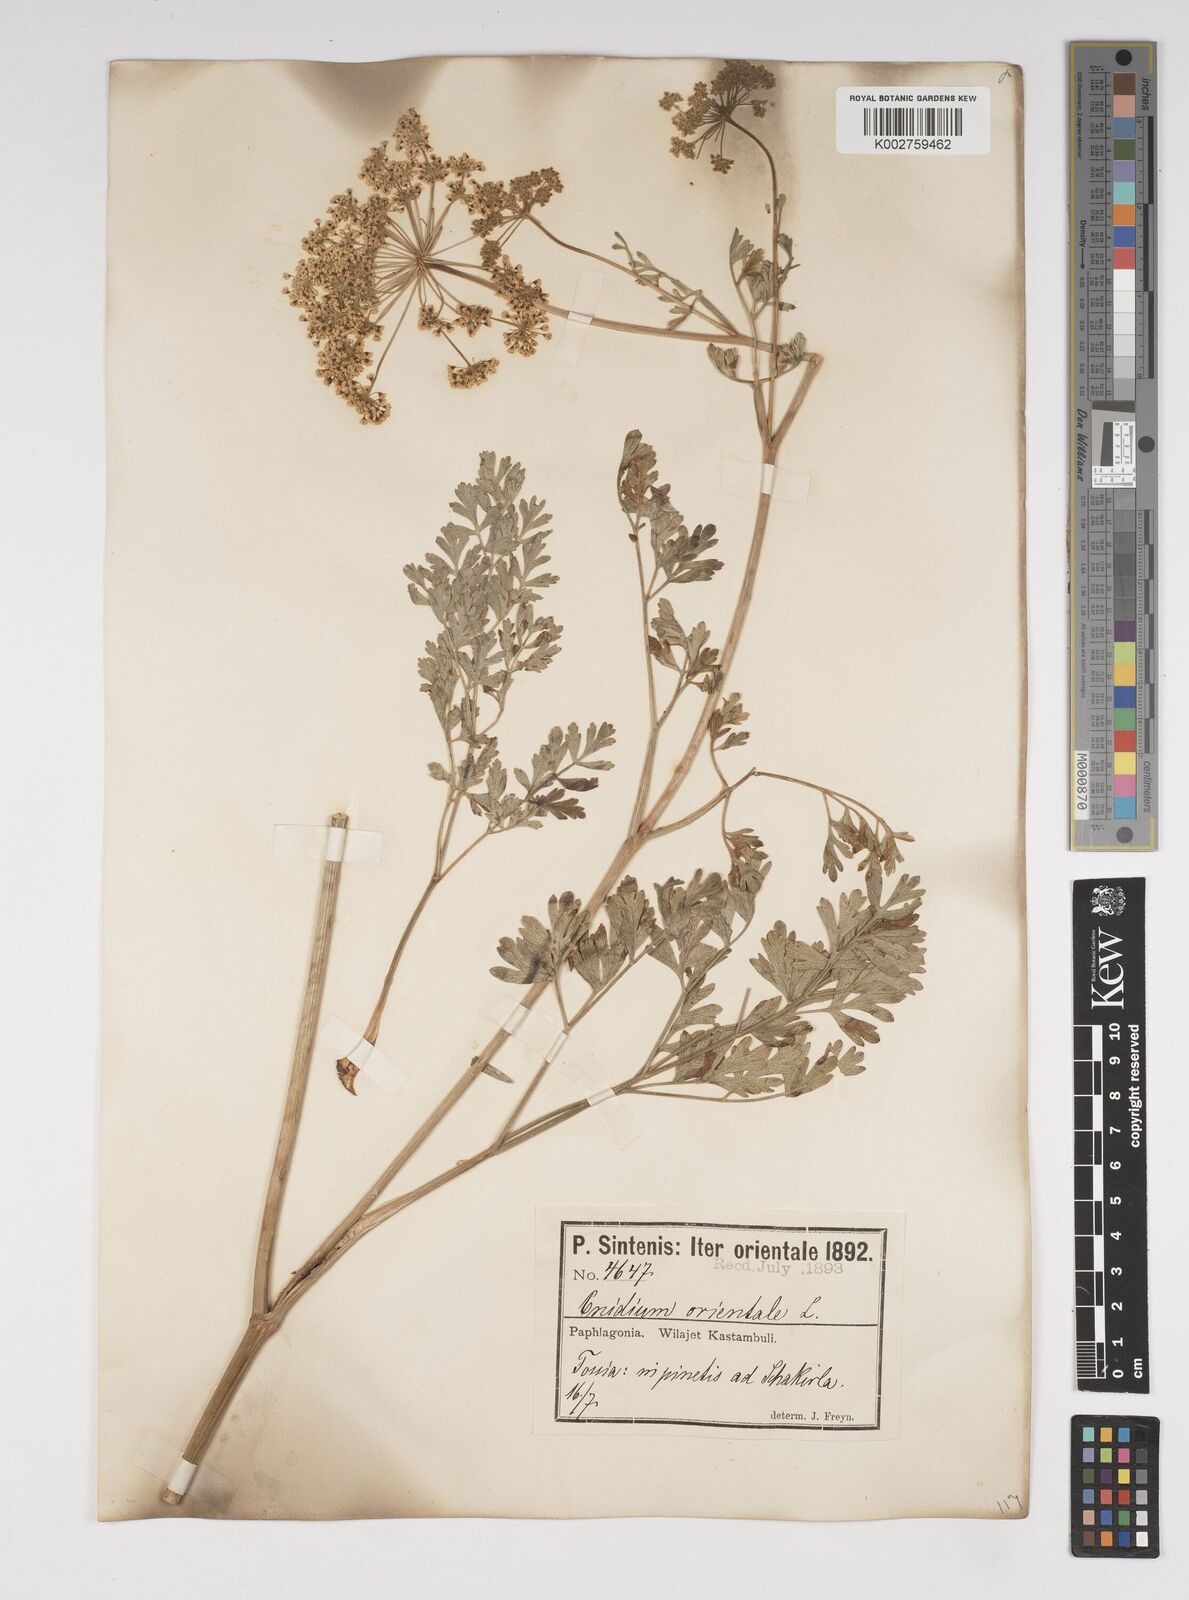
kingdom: Plantae
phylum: Tracheophyta
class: Magnoliopsida
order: Apiales
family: Apiaceae
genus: Katapsuxis
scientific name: Katapsuxis silaifolia
